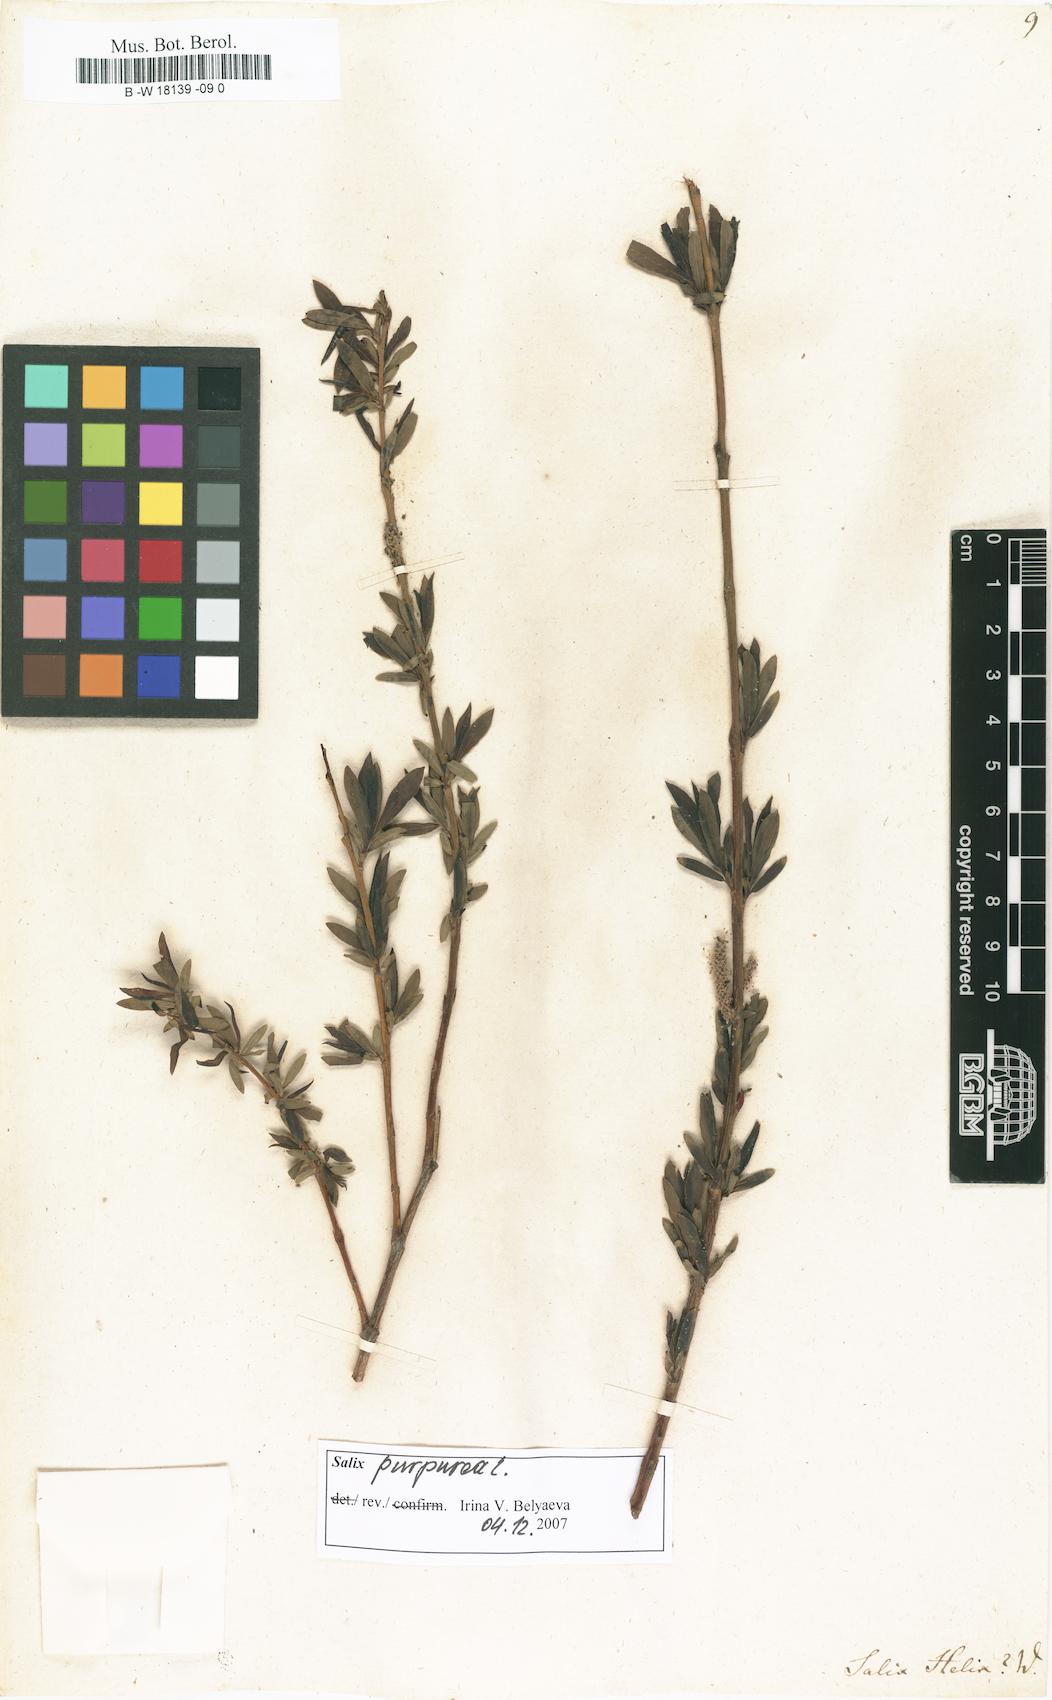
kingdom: Plantae
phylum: Tracheophyta
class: Magnoliopsida
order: Malpighiales
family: Salicaceae
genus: Salix
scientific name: Salix purpurea
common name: Purple willow
